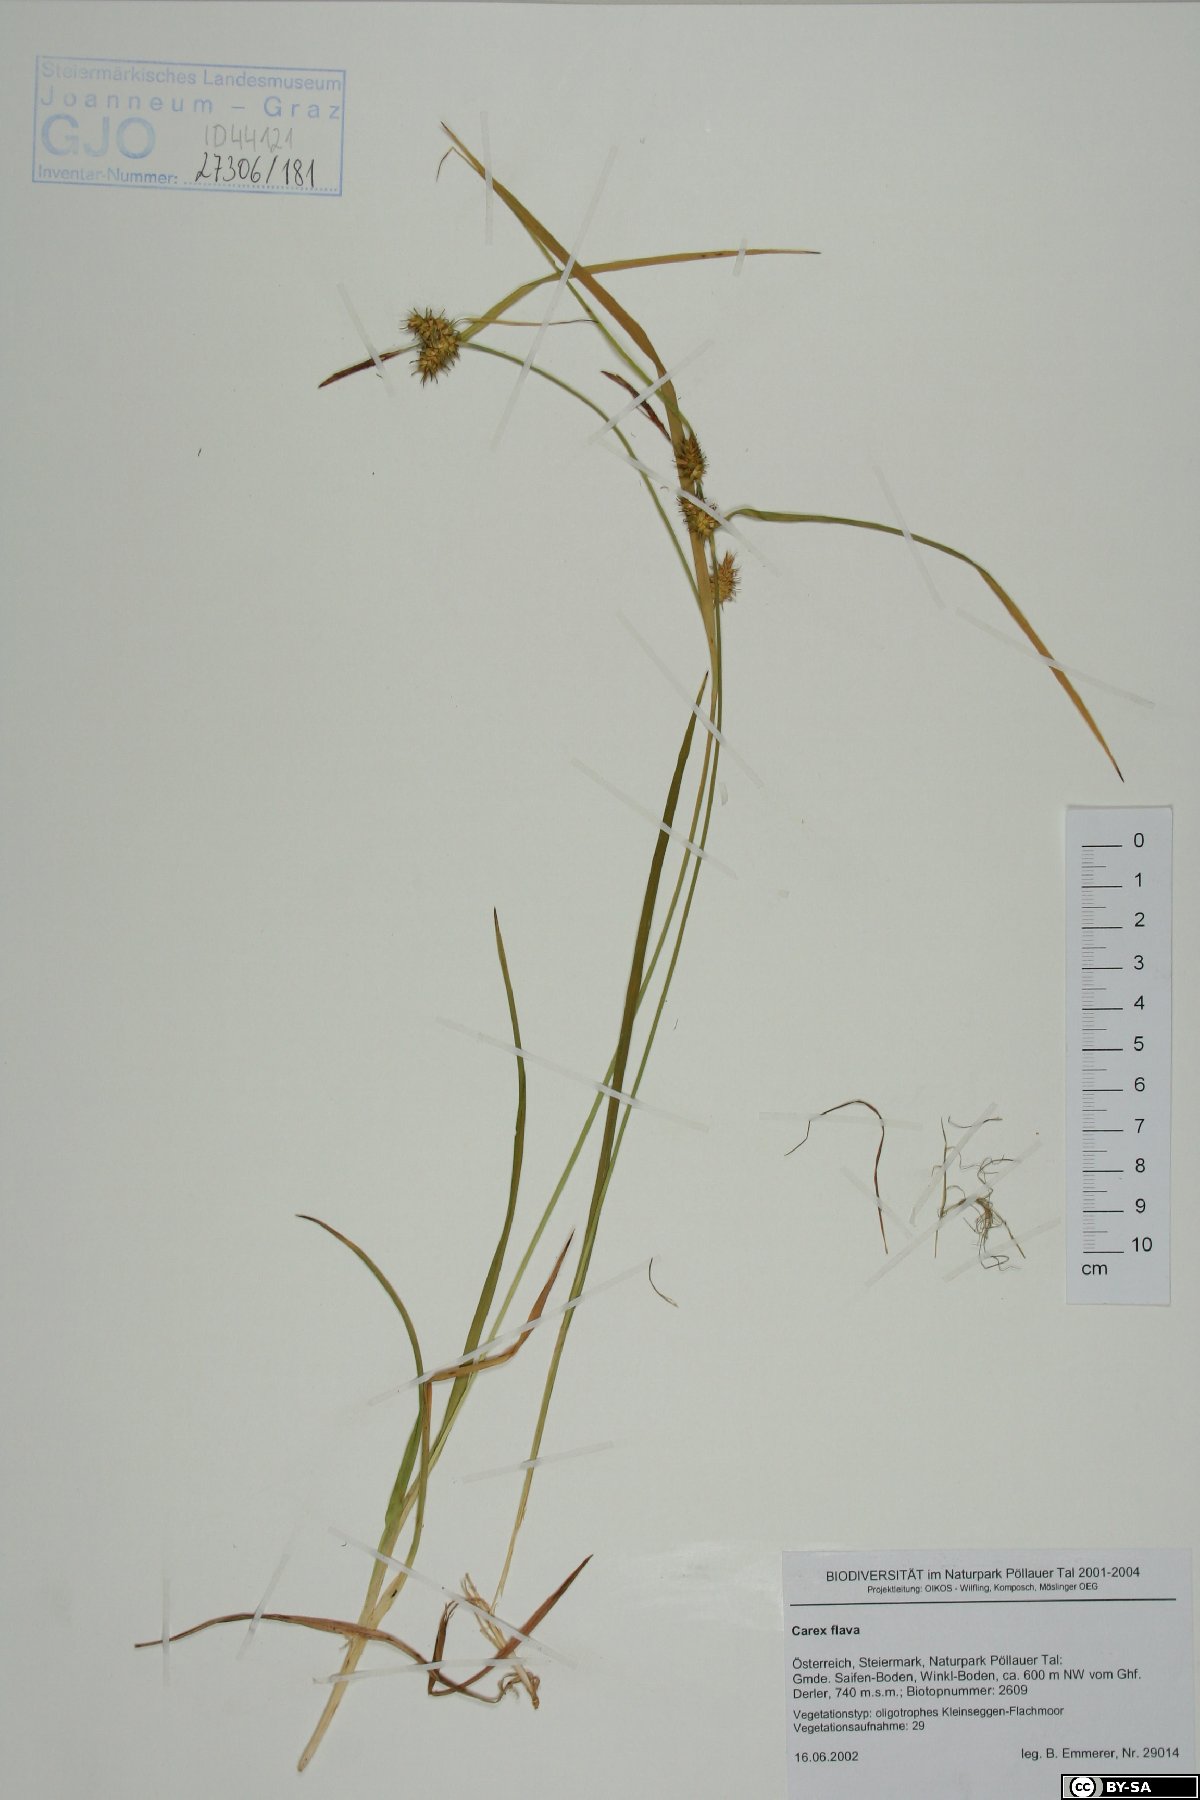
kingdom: Plantae
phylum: Tracheophyta
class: Liliopsida
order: Poales
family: Cyperaceae
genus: Carex
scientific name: Carex flava
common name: Large yellow-sedge
